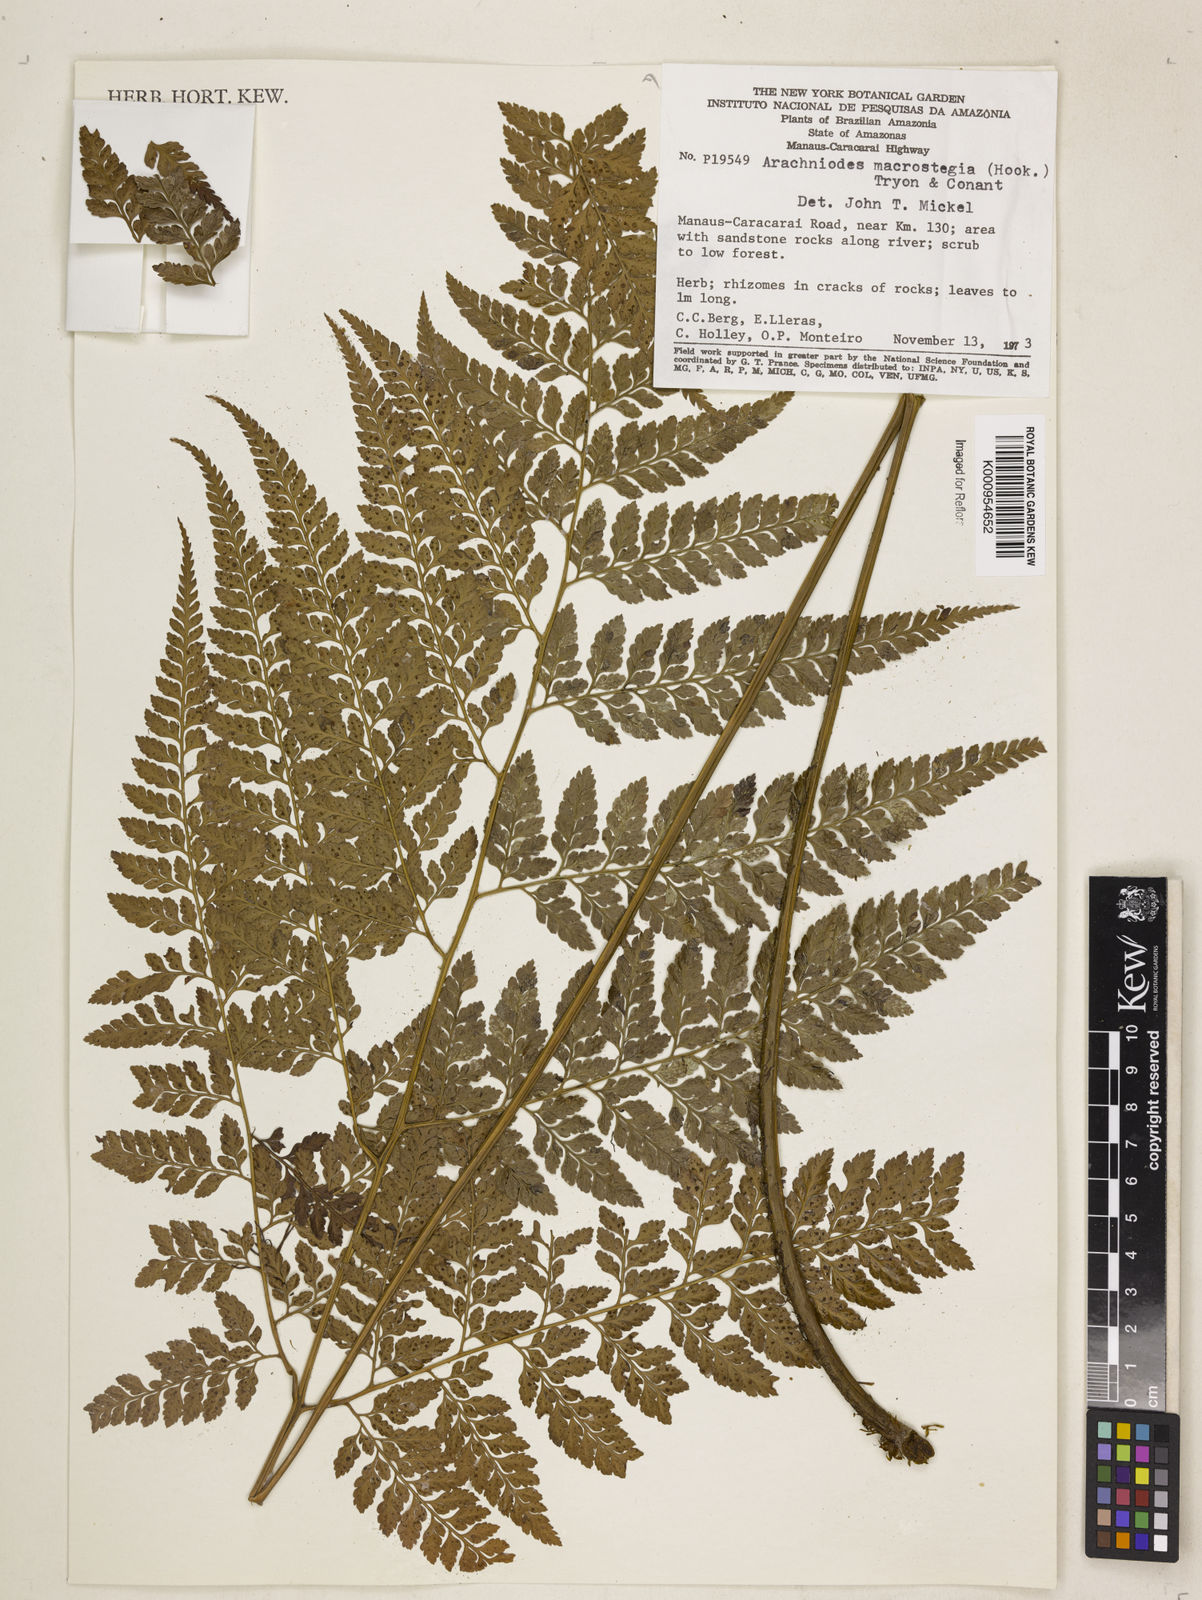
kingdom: Plantae
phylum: Tracheophyta
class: Polypodiopsida
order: Polypodiales
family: Dryopteridaceae
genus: Olfersia
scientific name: Olfersia macrostegia
